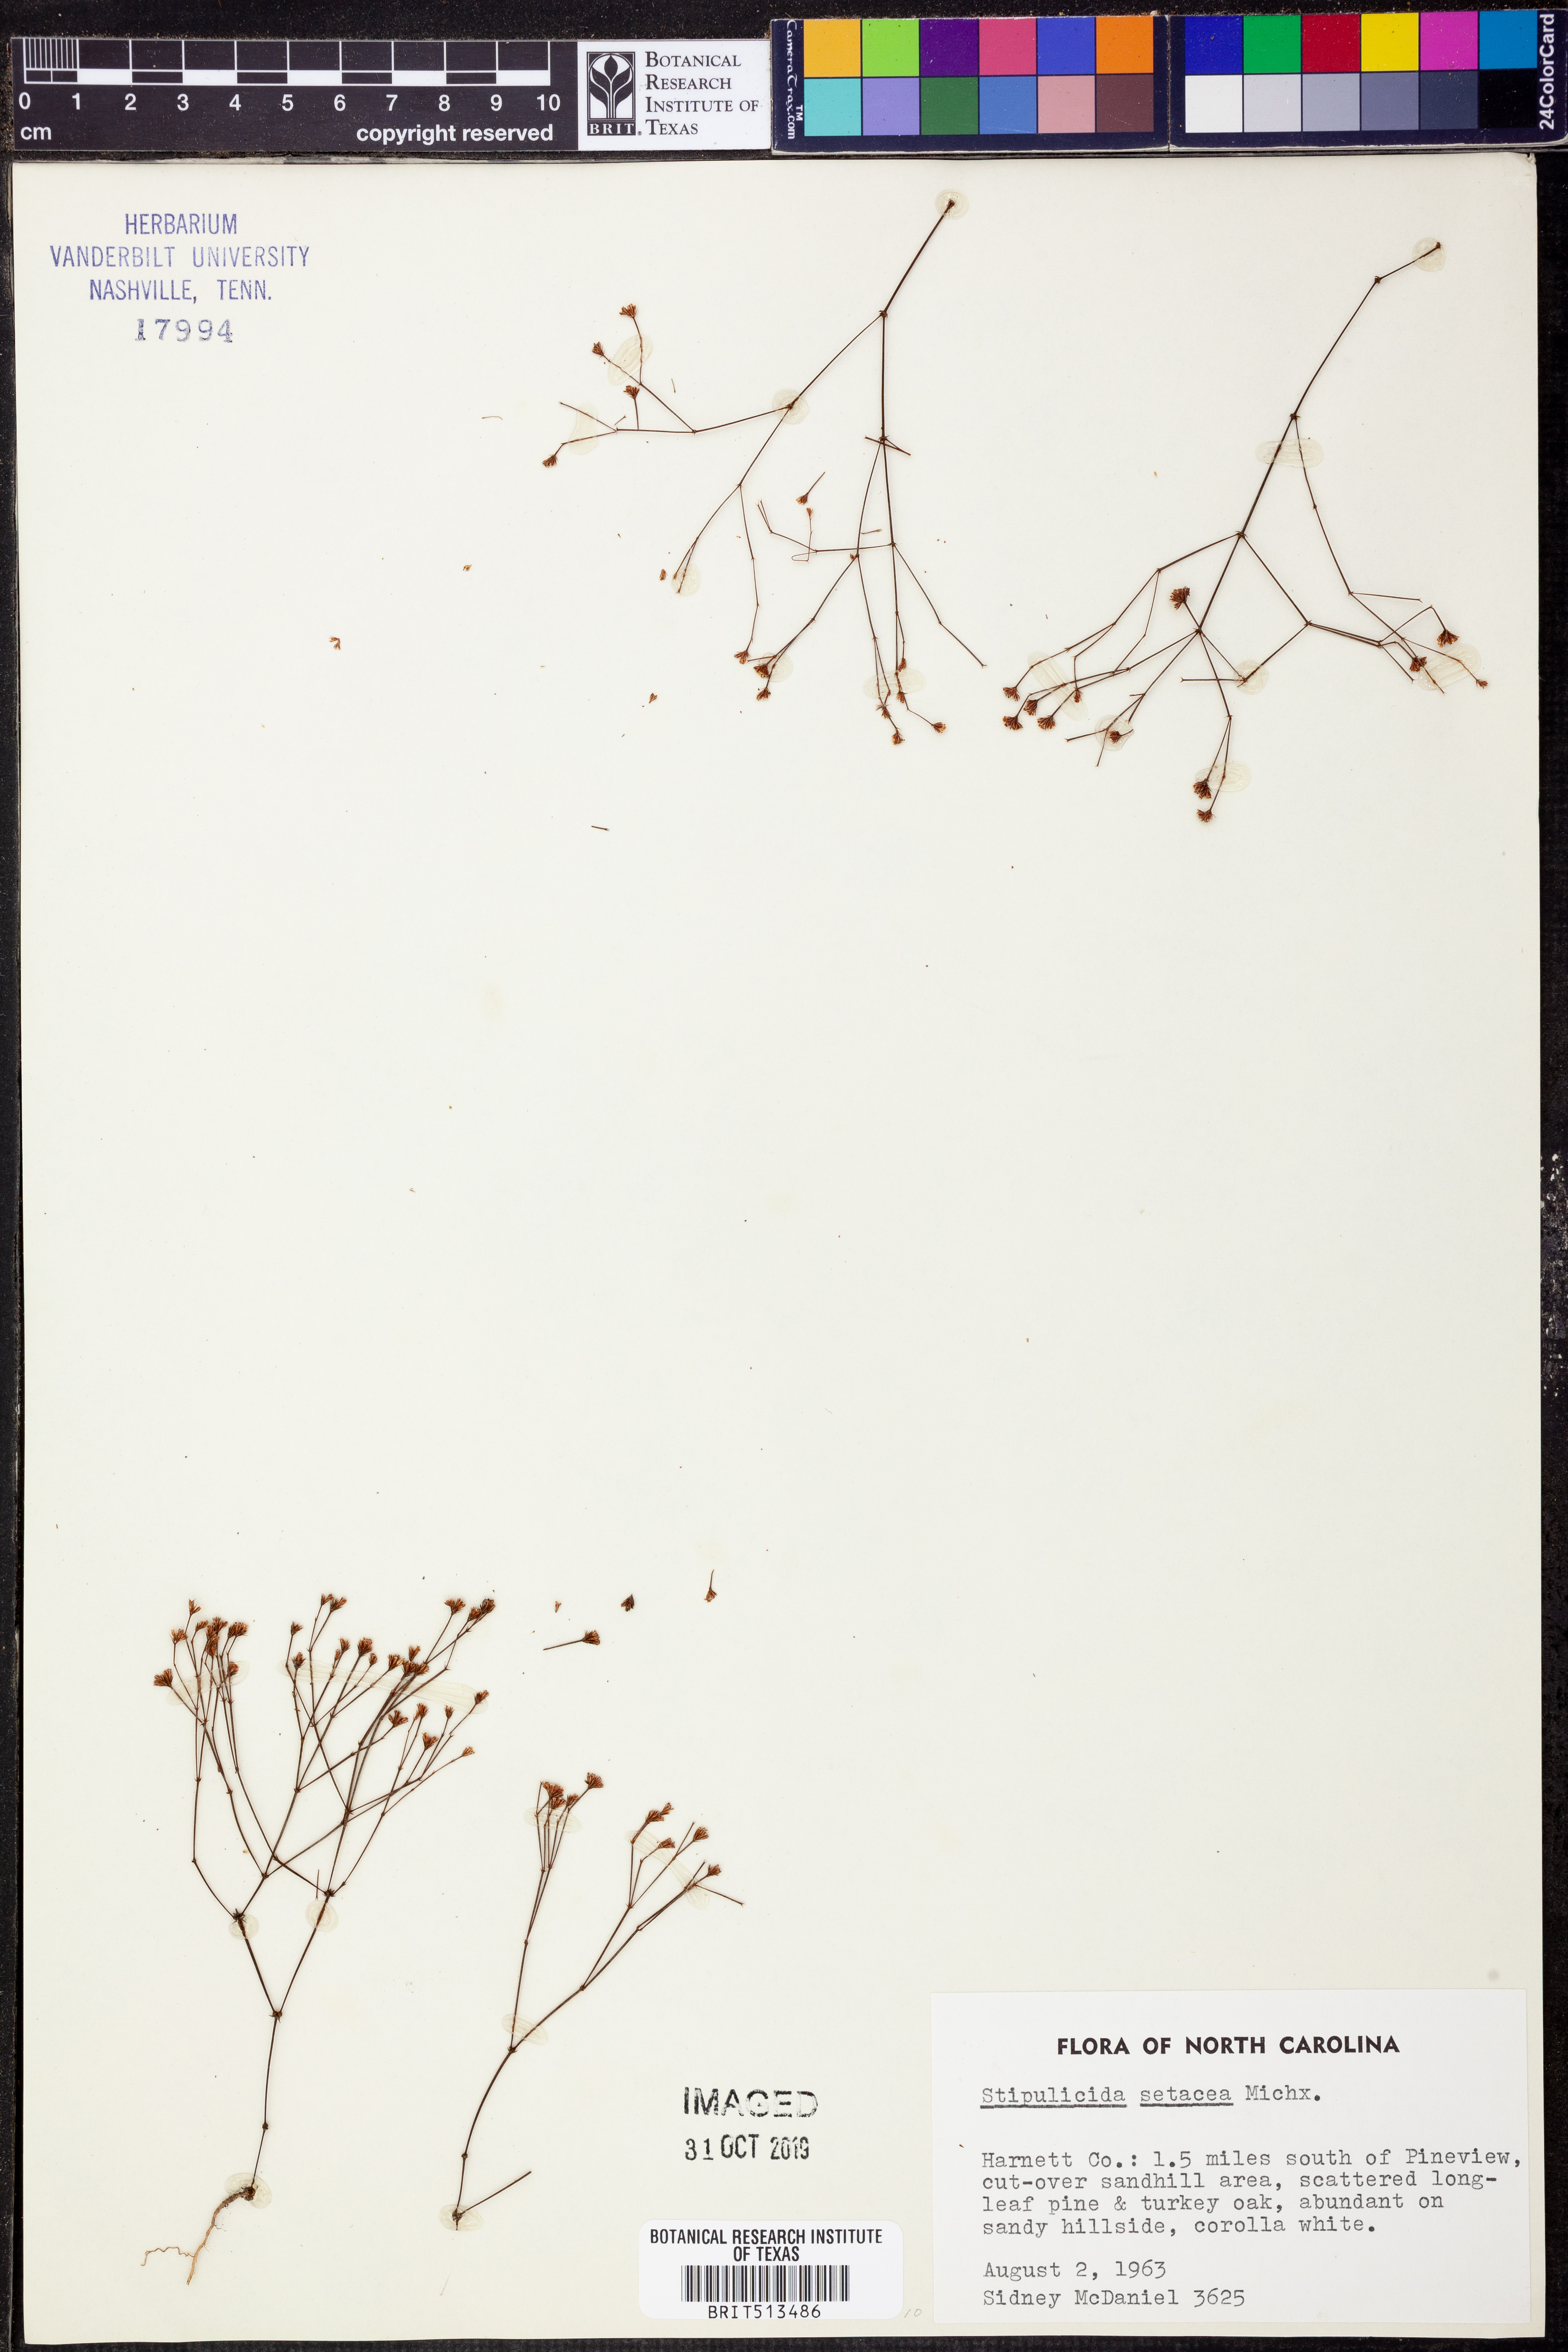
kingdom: Plantae
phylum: Tracheophyta
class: Magnoliopsida
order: Caryophyllales
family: Caryophyllaceae
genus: Stipulicida
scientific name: Stipulicida setacea
